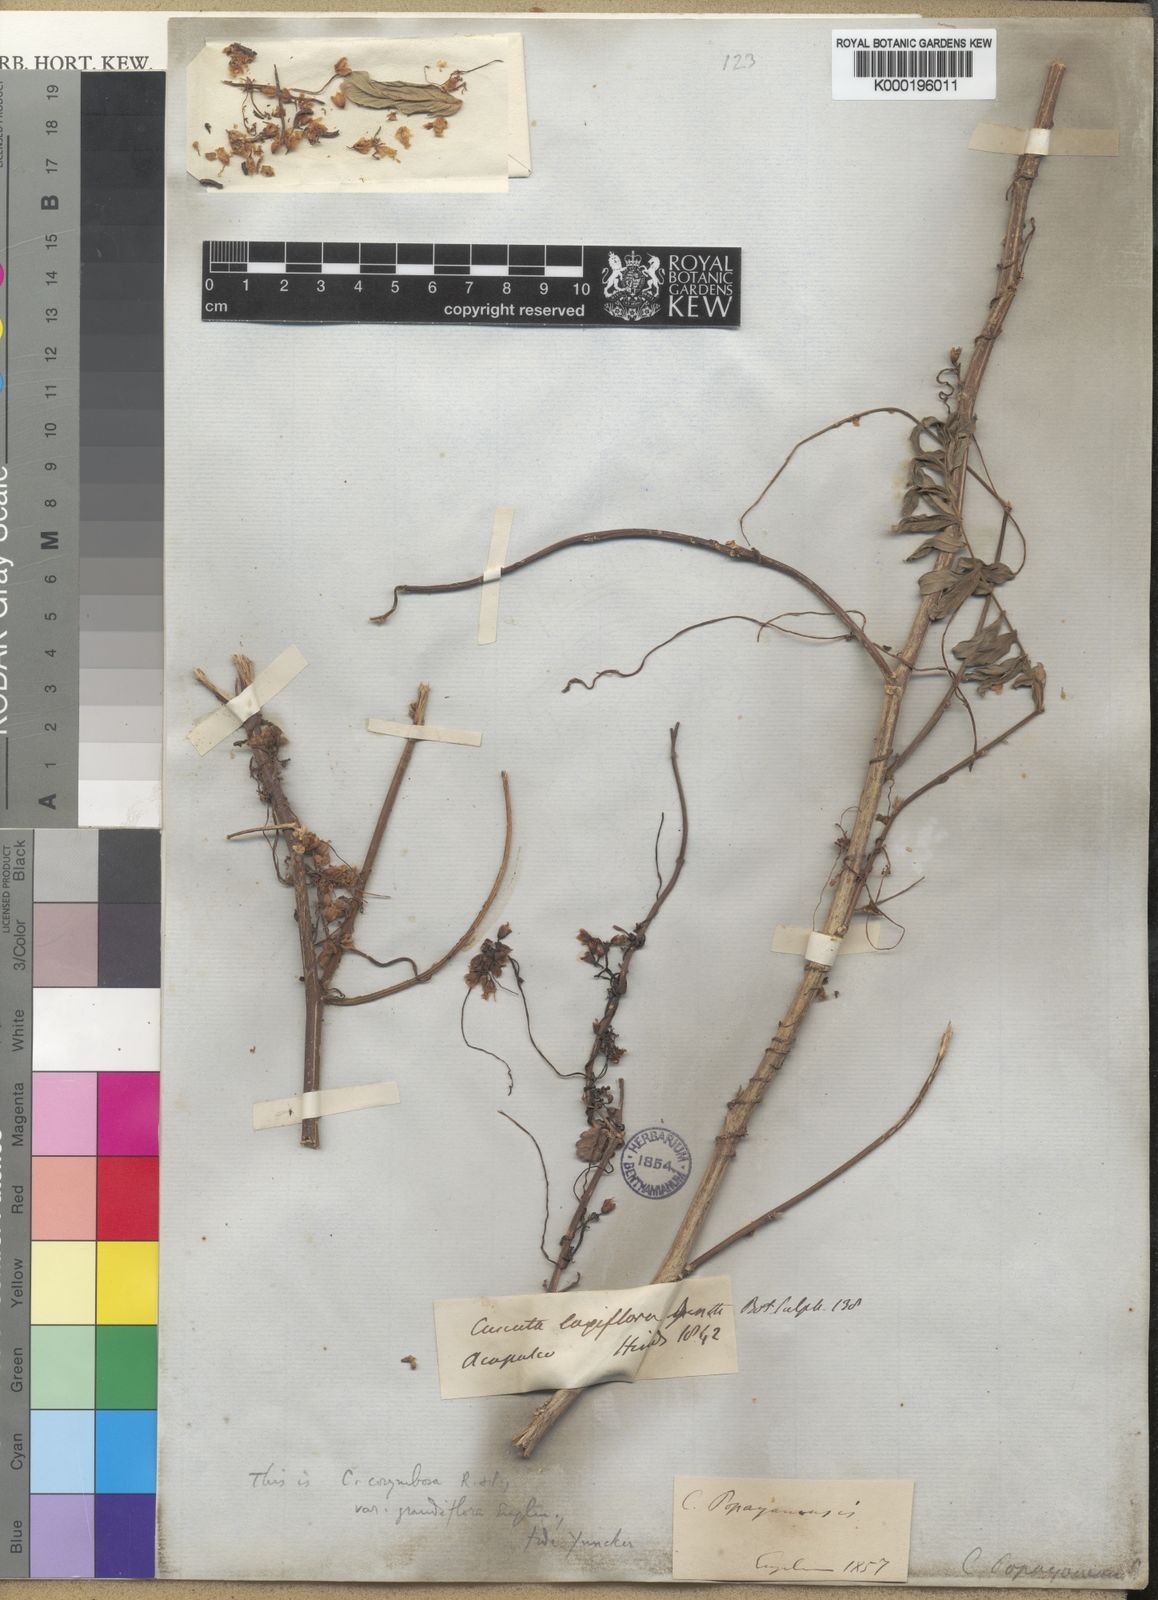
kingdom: Plantae
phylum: Tracheophyta
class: Magnoliopsida
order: Solanales
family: Convolvulaceae
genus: Cuscuta
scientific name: Cuscuta corymbosa
